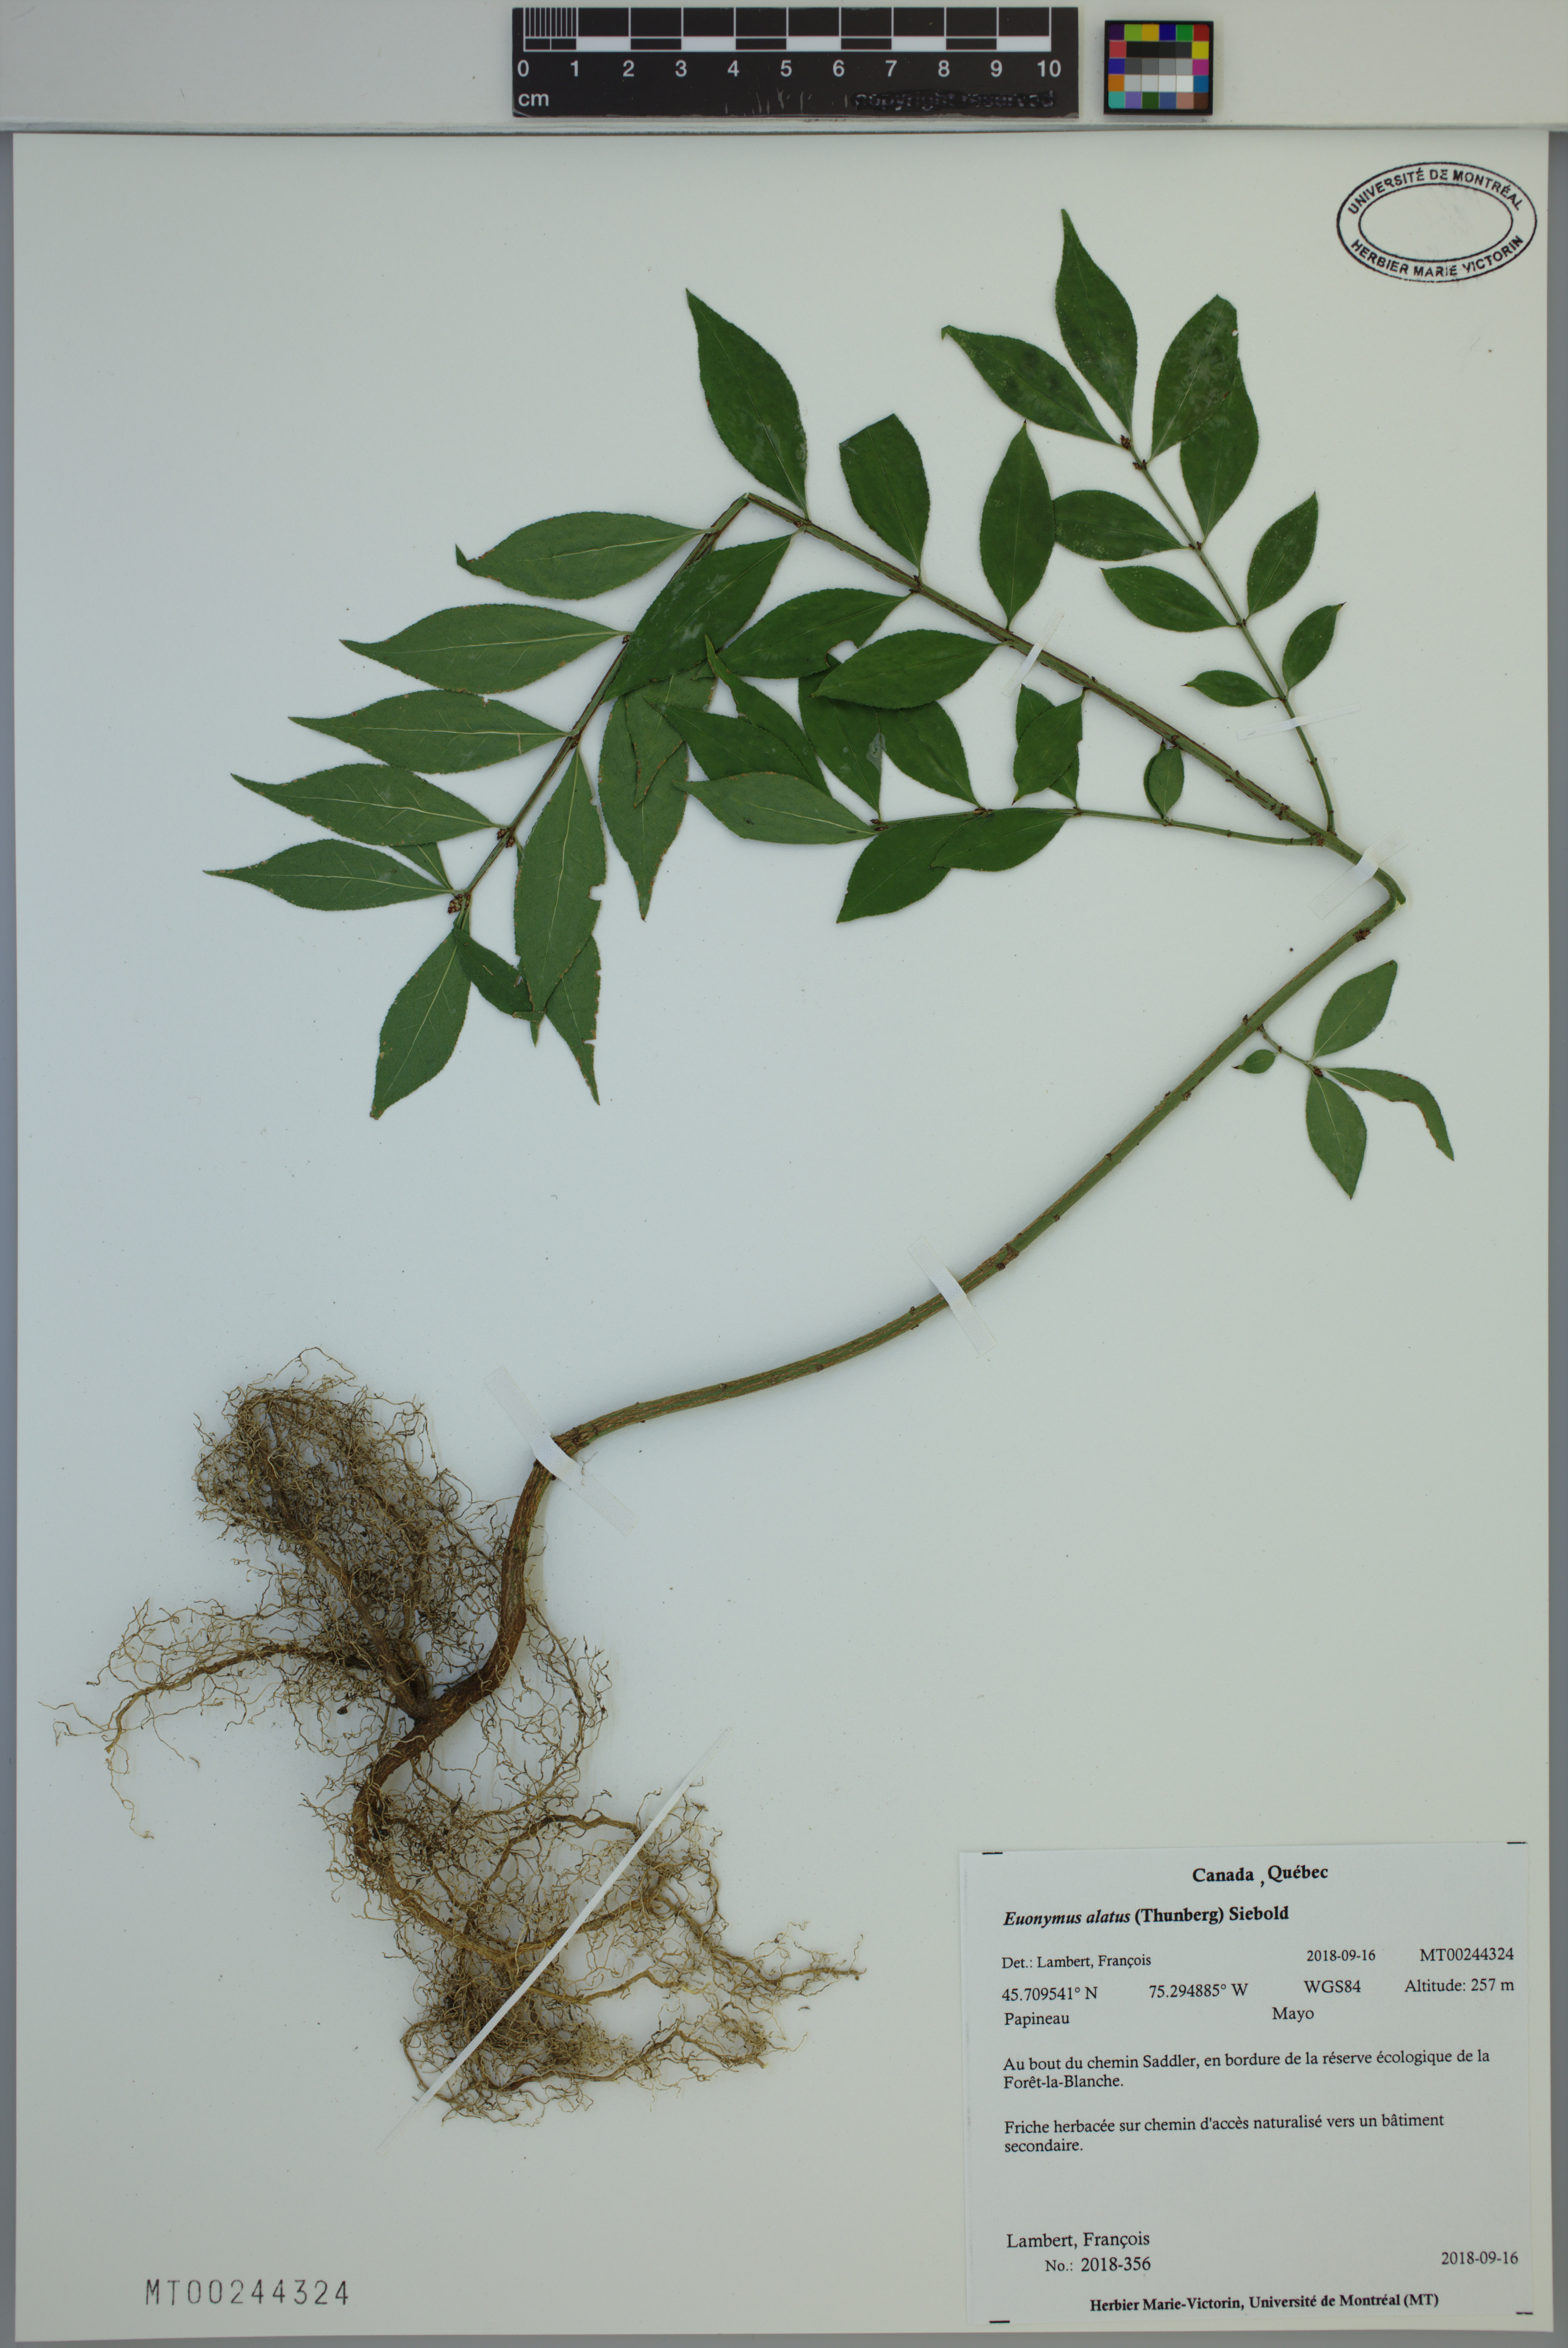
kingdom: Plantae
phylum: Tracheophyta
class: Magnoliopsida
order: Celastrales
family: Celastraceae
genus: Euonymus
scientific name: Euonymus alatus
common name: Winged euonymus
